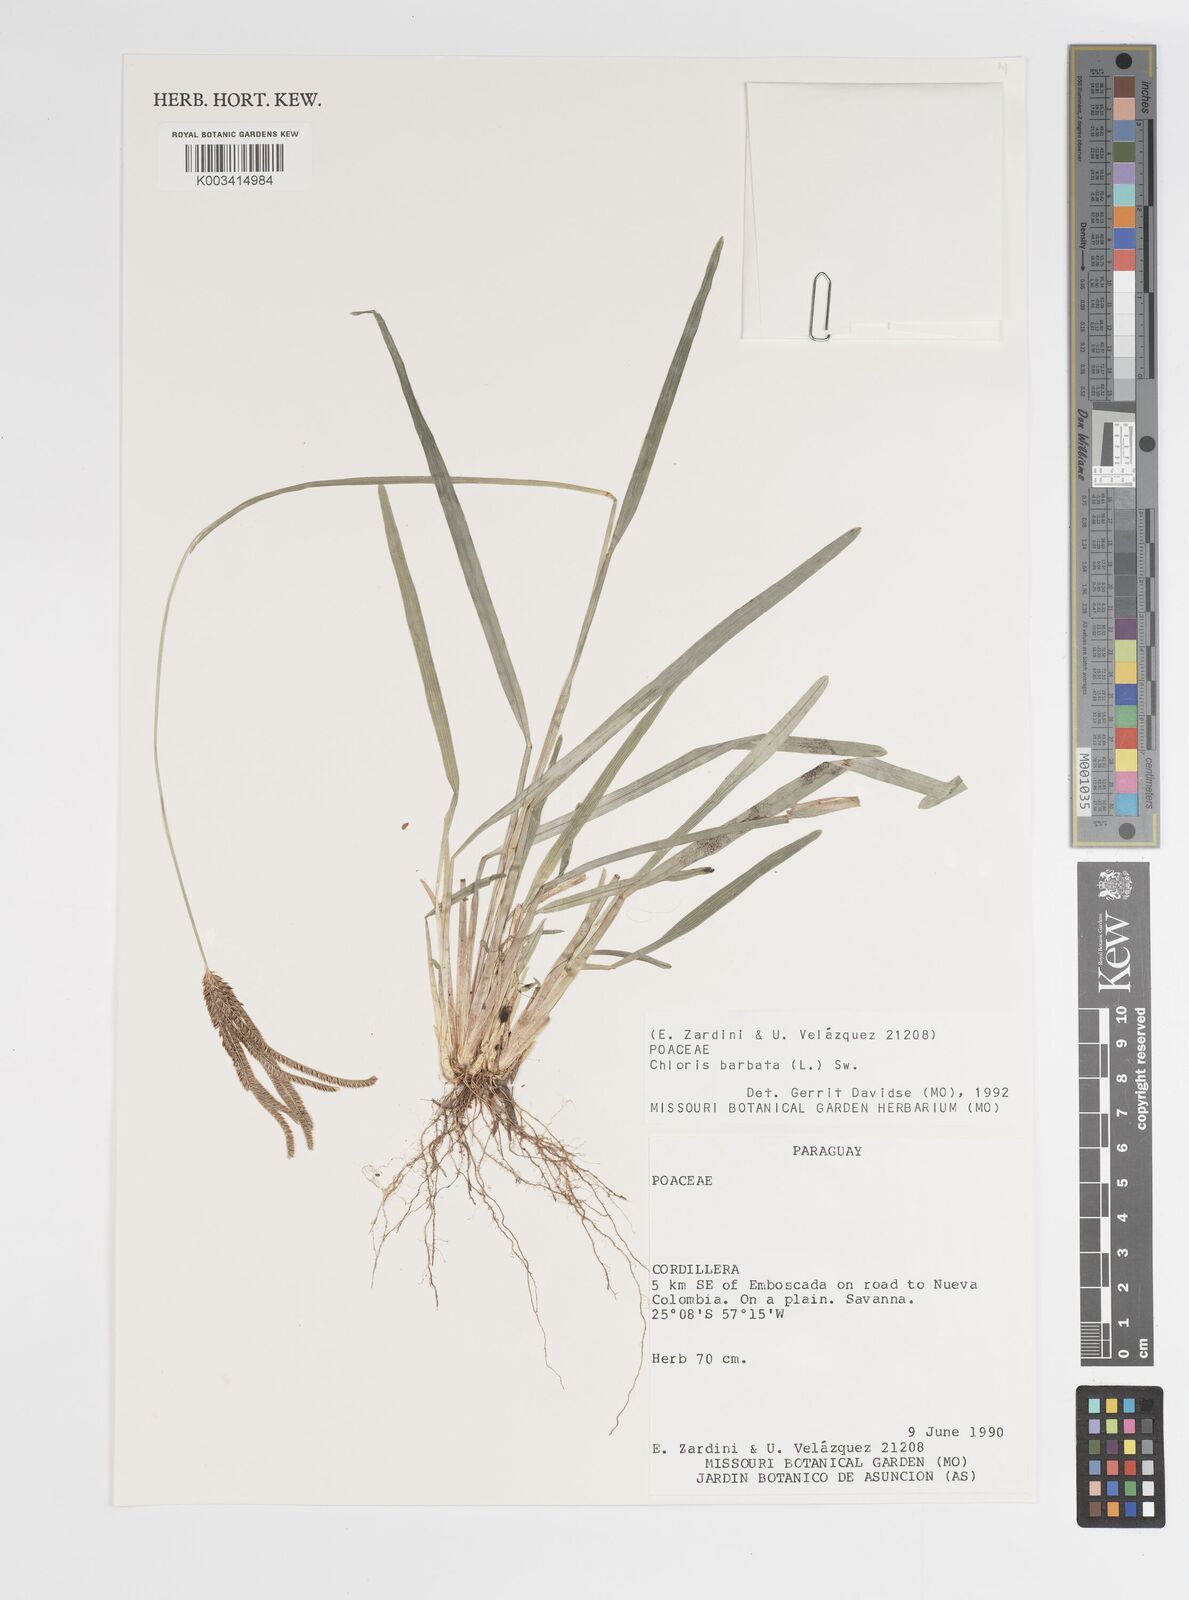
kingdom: Plantae
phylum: Tracheophyta
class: Liliopsida
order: Poales
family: Poaceae
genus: Chloris
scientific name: Chloris barbata
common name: Swollen fingergrass
